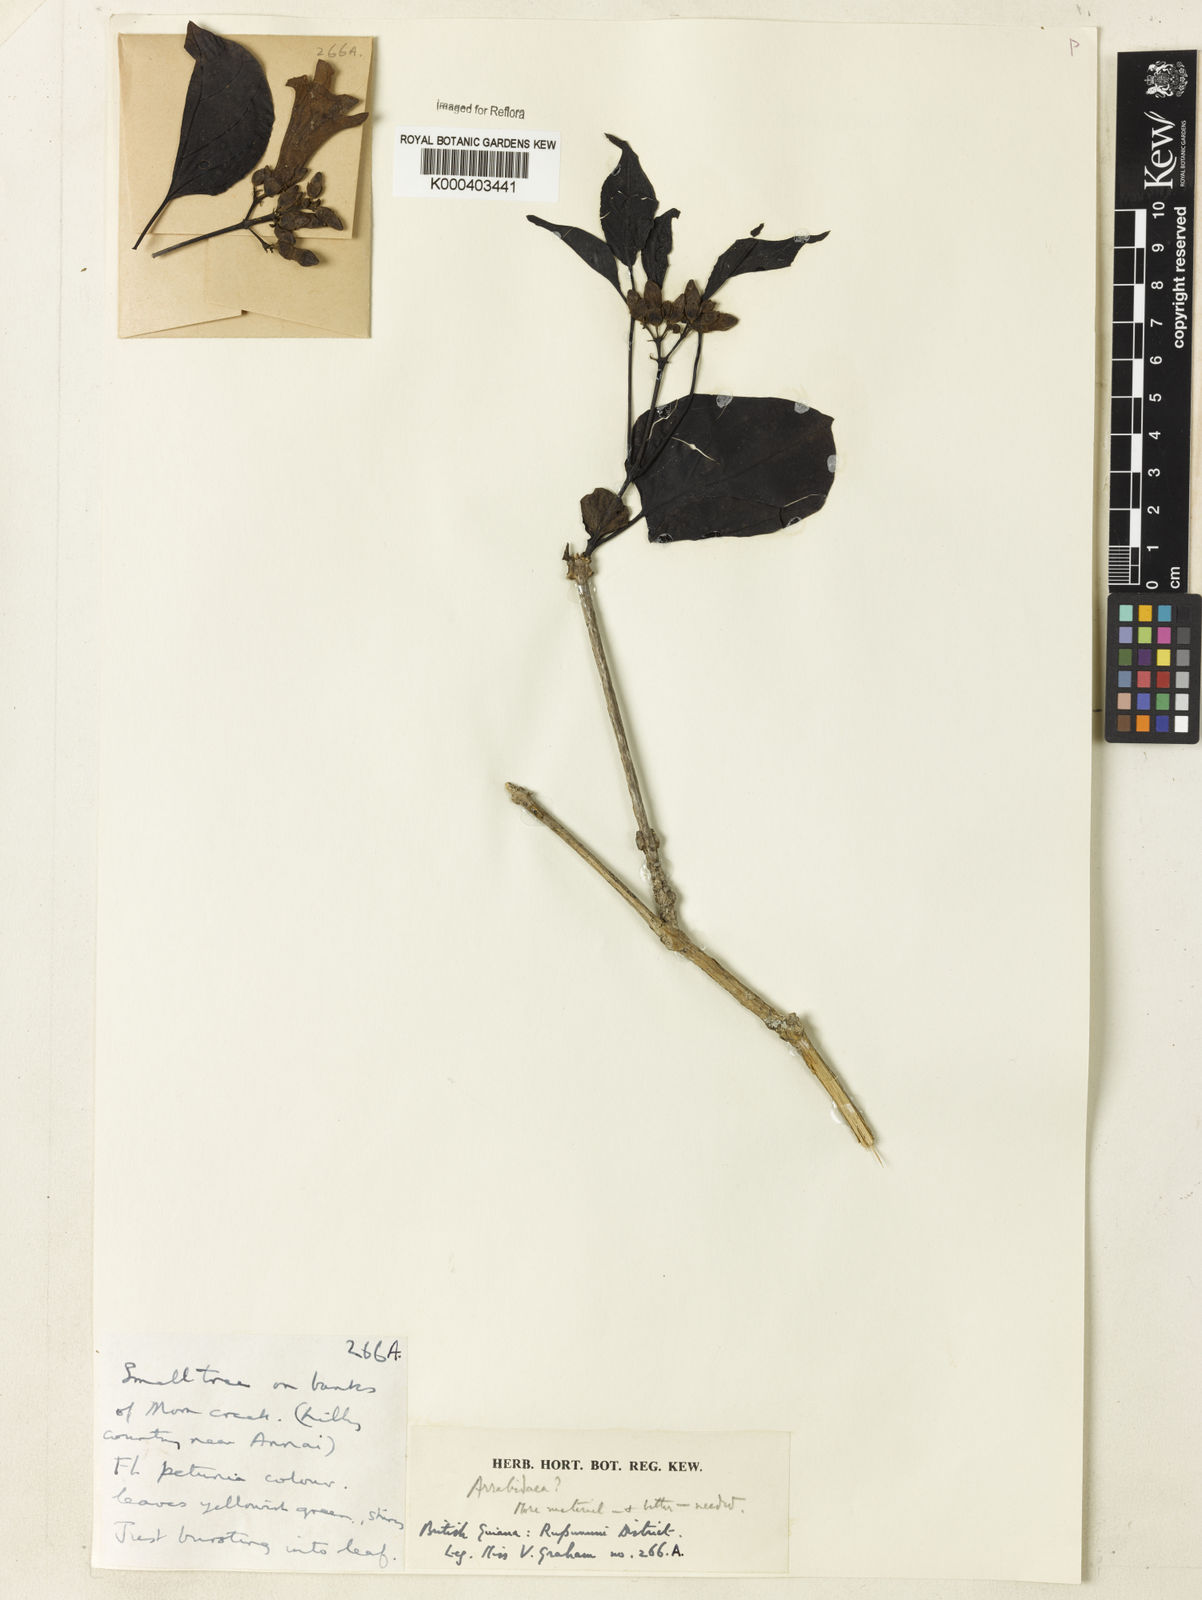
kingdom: Plantae
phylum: Tracheophyta
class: Magnoliopsida
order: Rosales
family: Rhamnaceae
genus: Arrabidaea
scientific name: Arrabidaea
